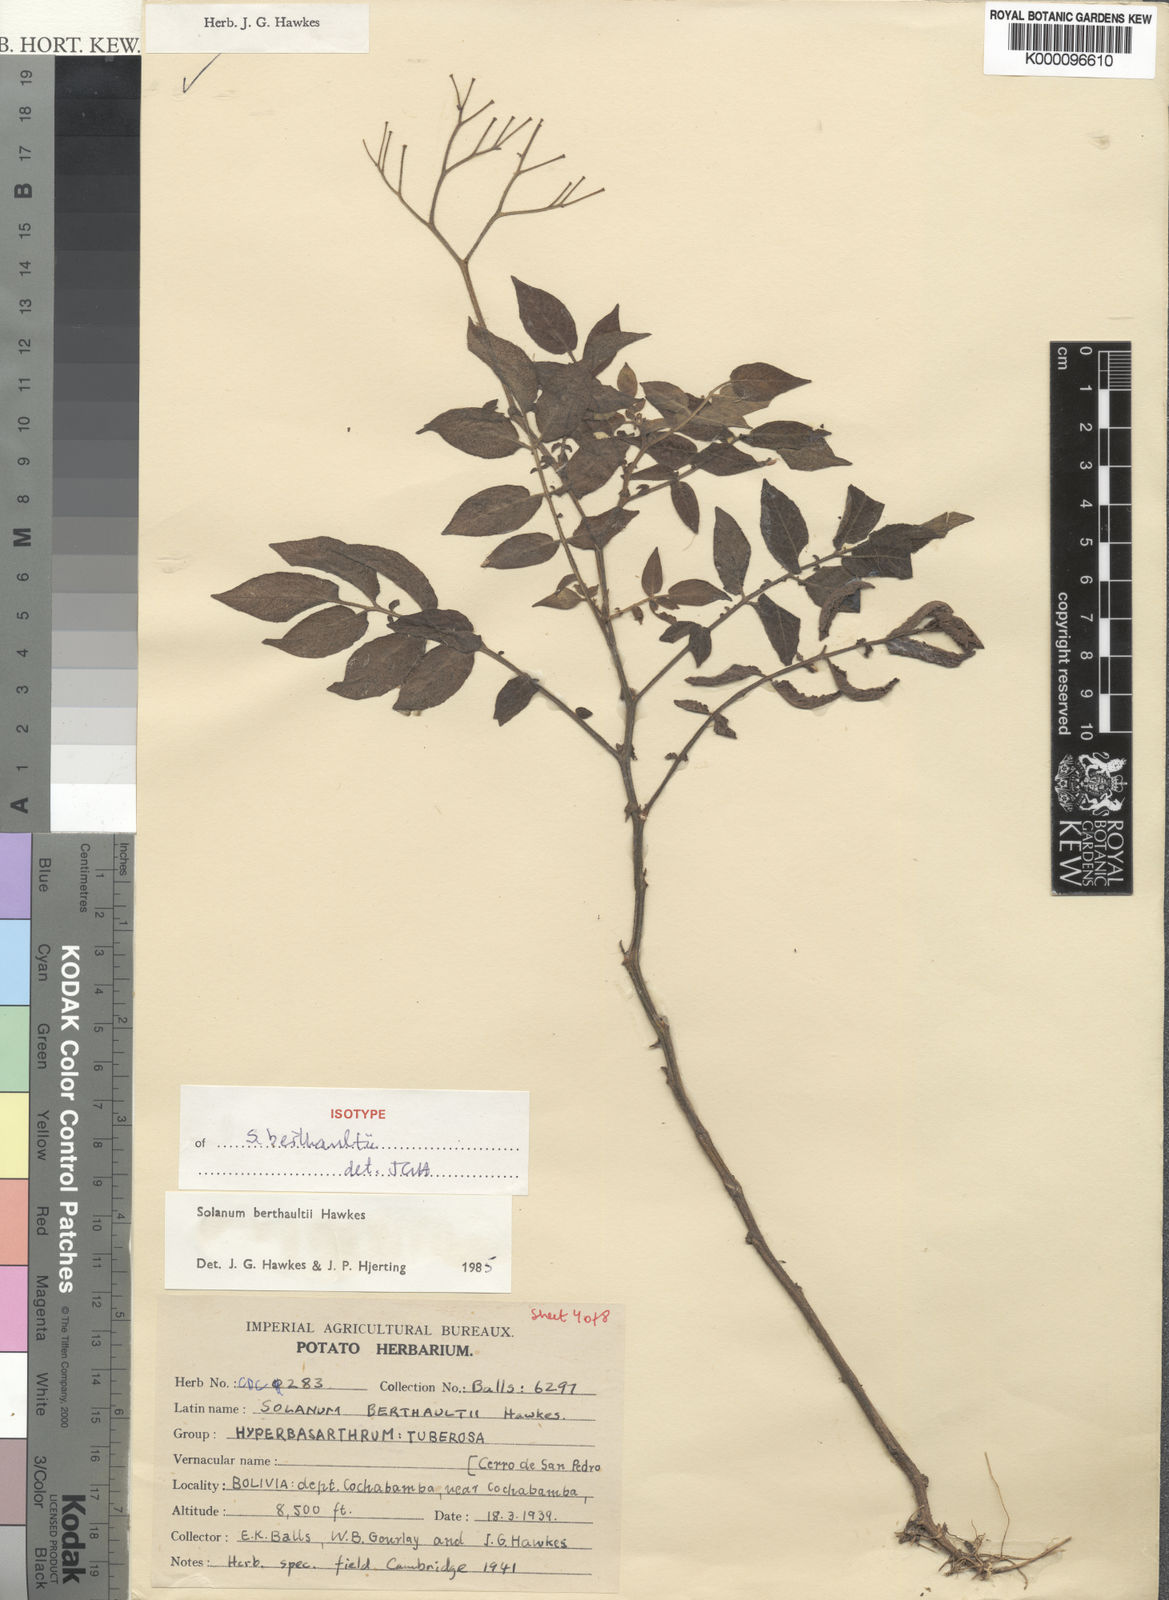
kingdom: Plantae
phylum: Tracheophyta
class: Magnoliopsida
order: Solanales
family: Solanaceae
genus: Solanum
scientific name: Solanum berthaultii
